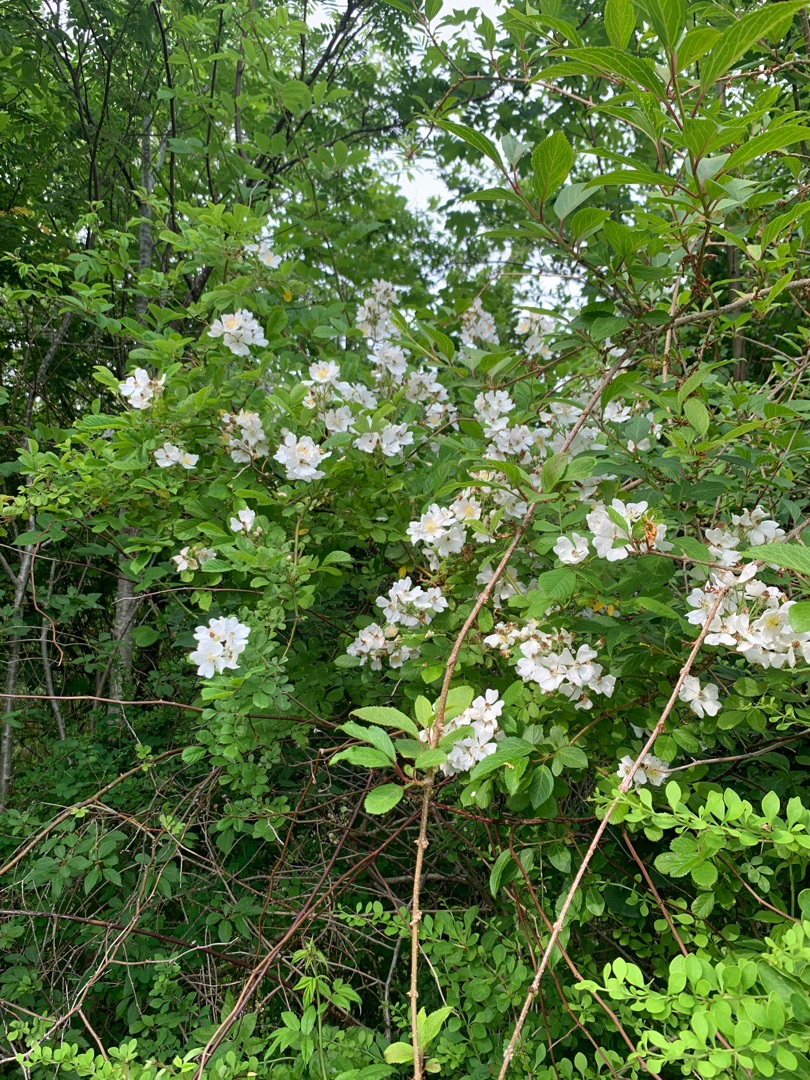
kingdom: Plantae
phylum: Tracheophyta
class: Magnoliopsida
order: Rosales
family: Rosaceae
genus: Rosa
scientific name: Rosa multiflora
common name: Mangeblomstret rose
